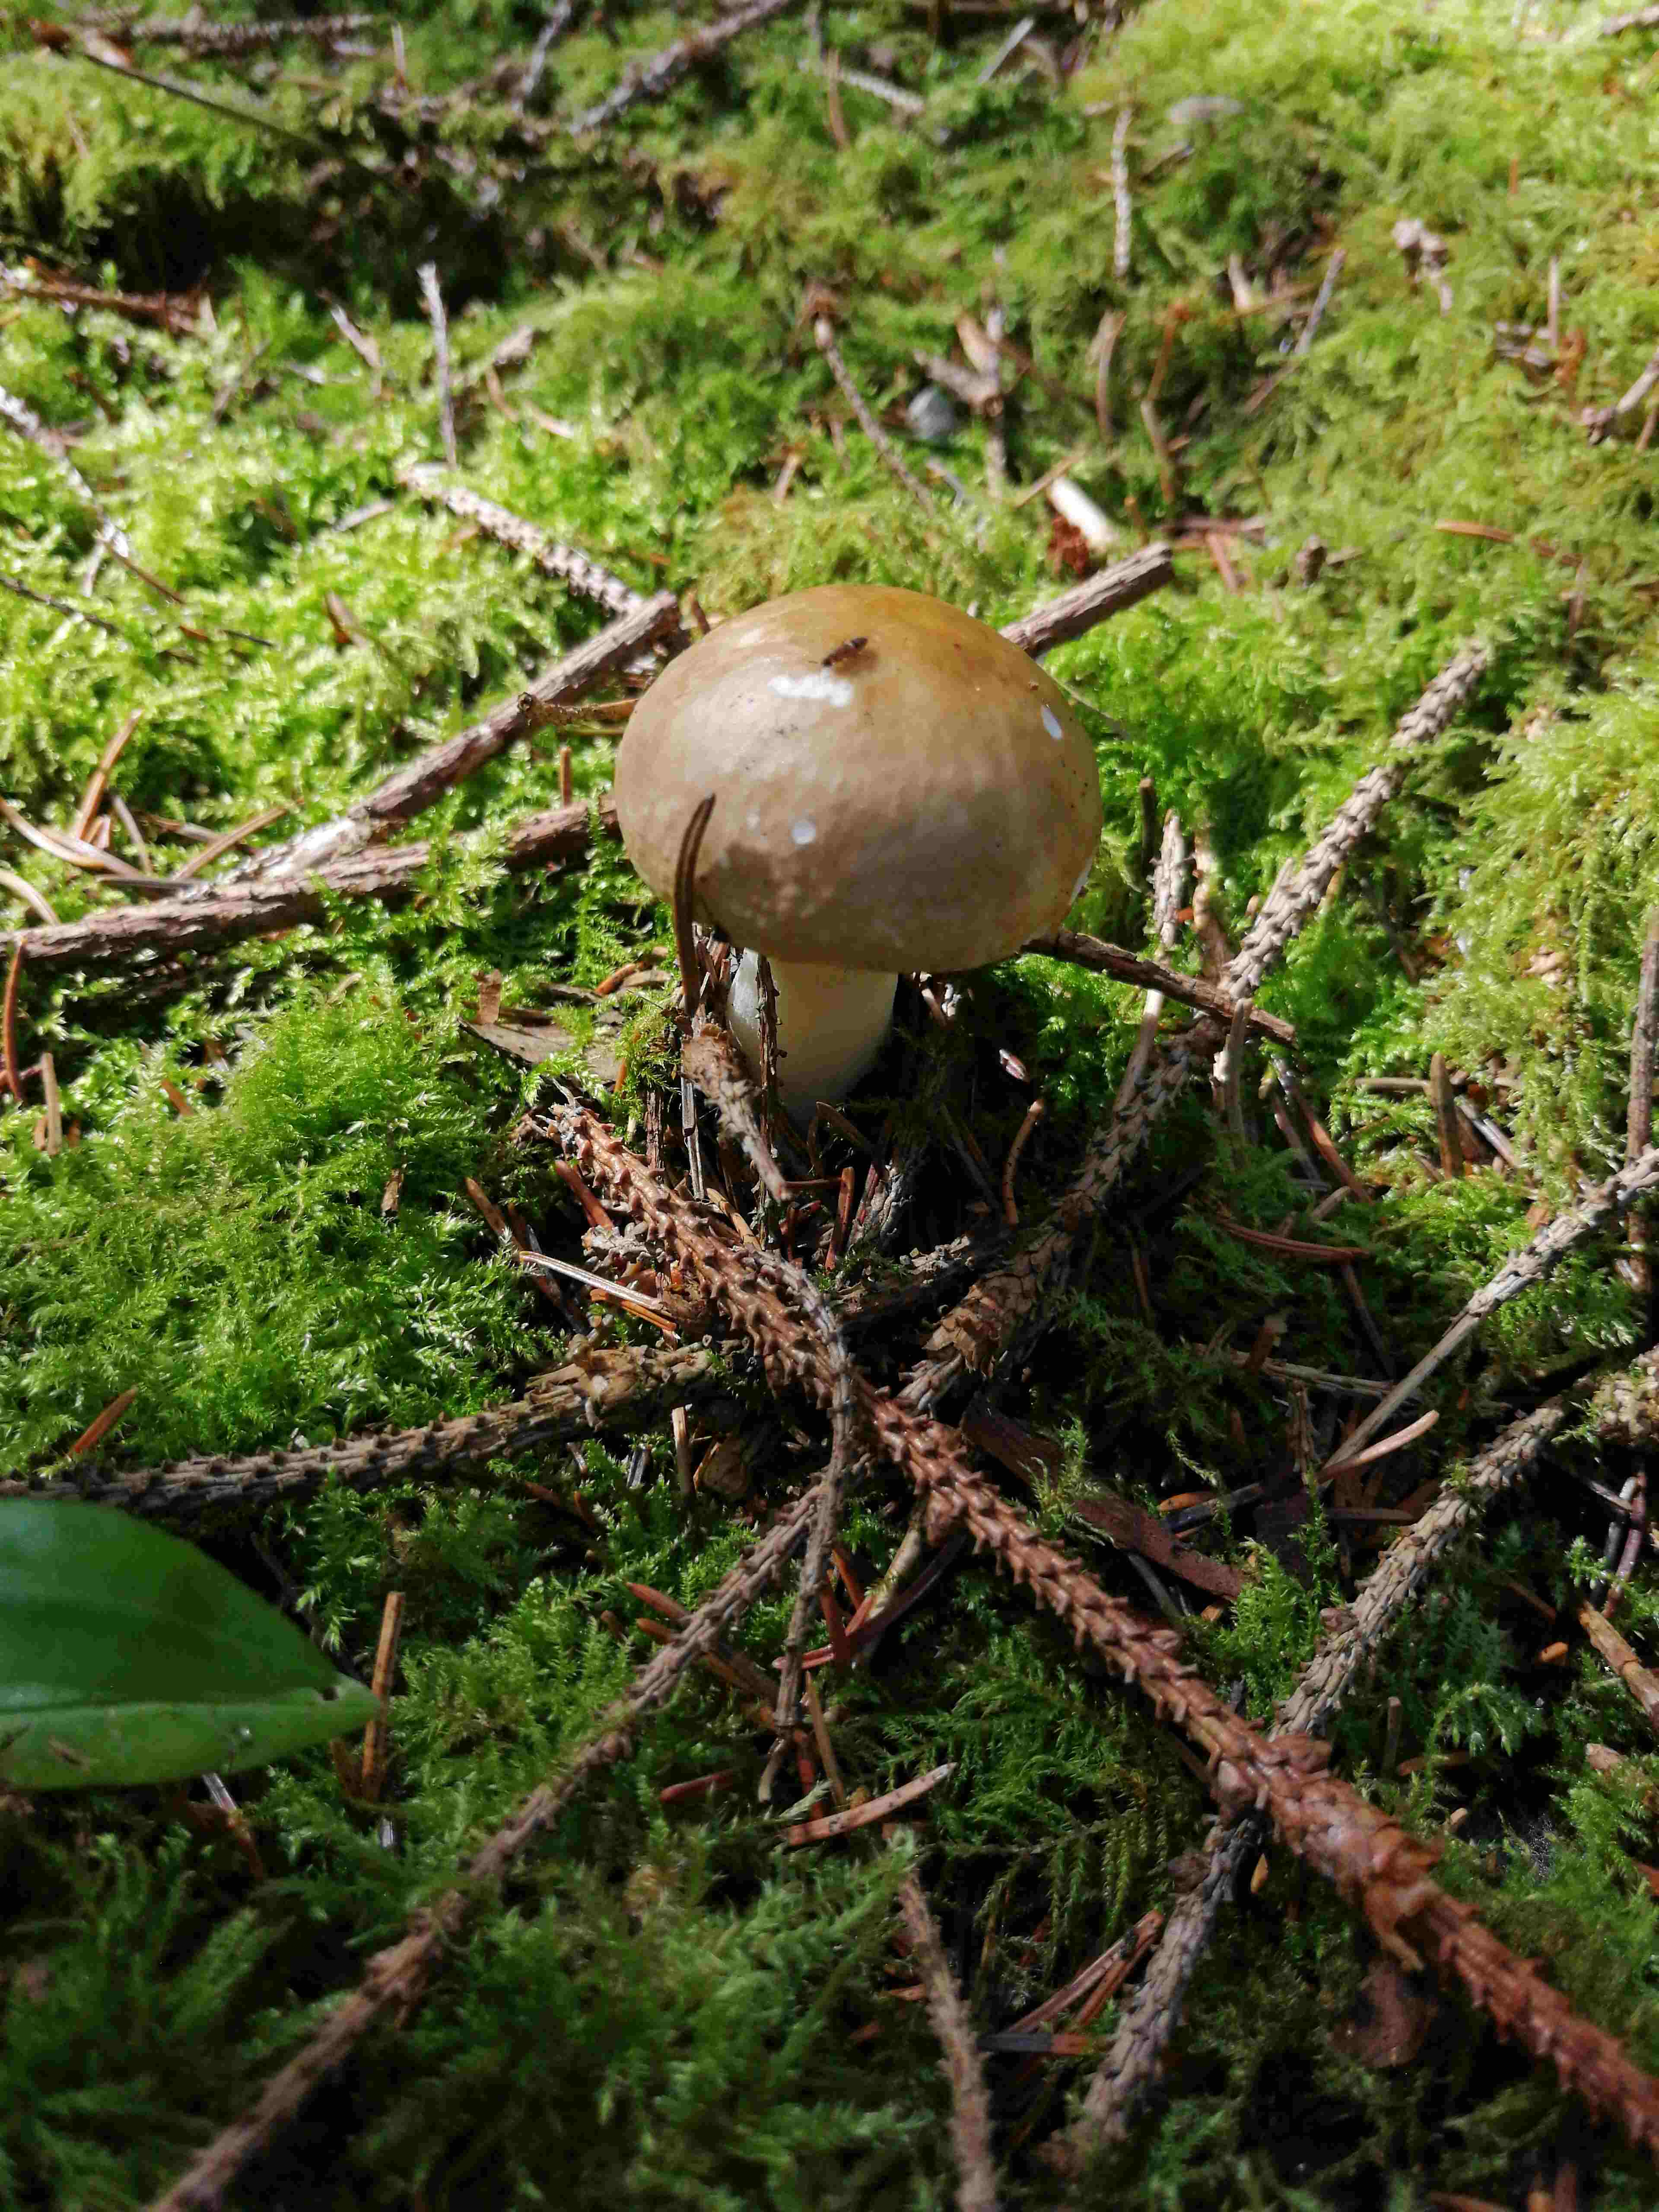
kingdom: Plantae
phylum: Bryophyta
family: Agaricomycetidae
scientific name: Agaricomycetidae
